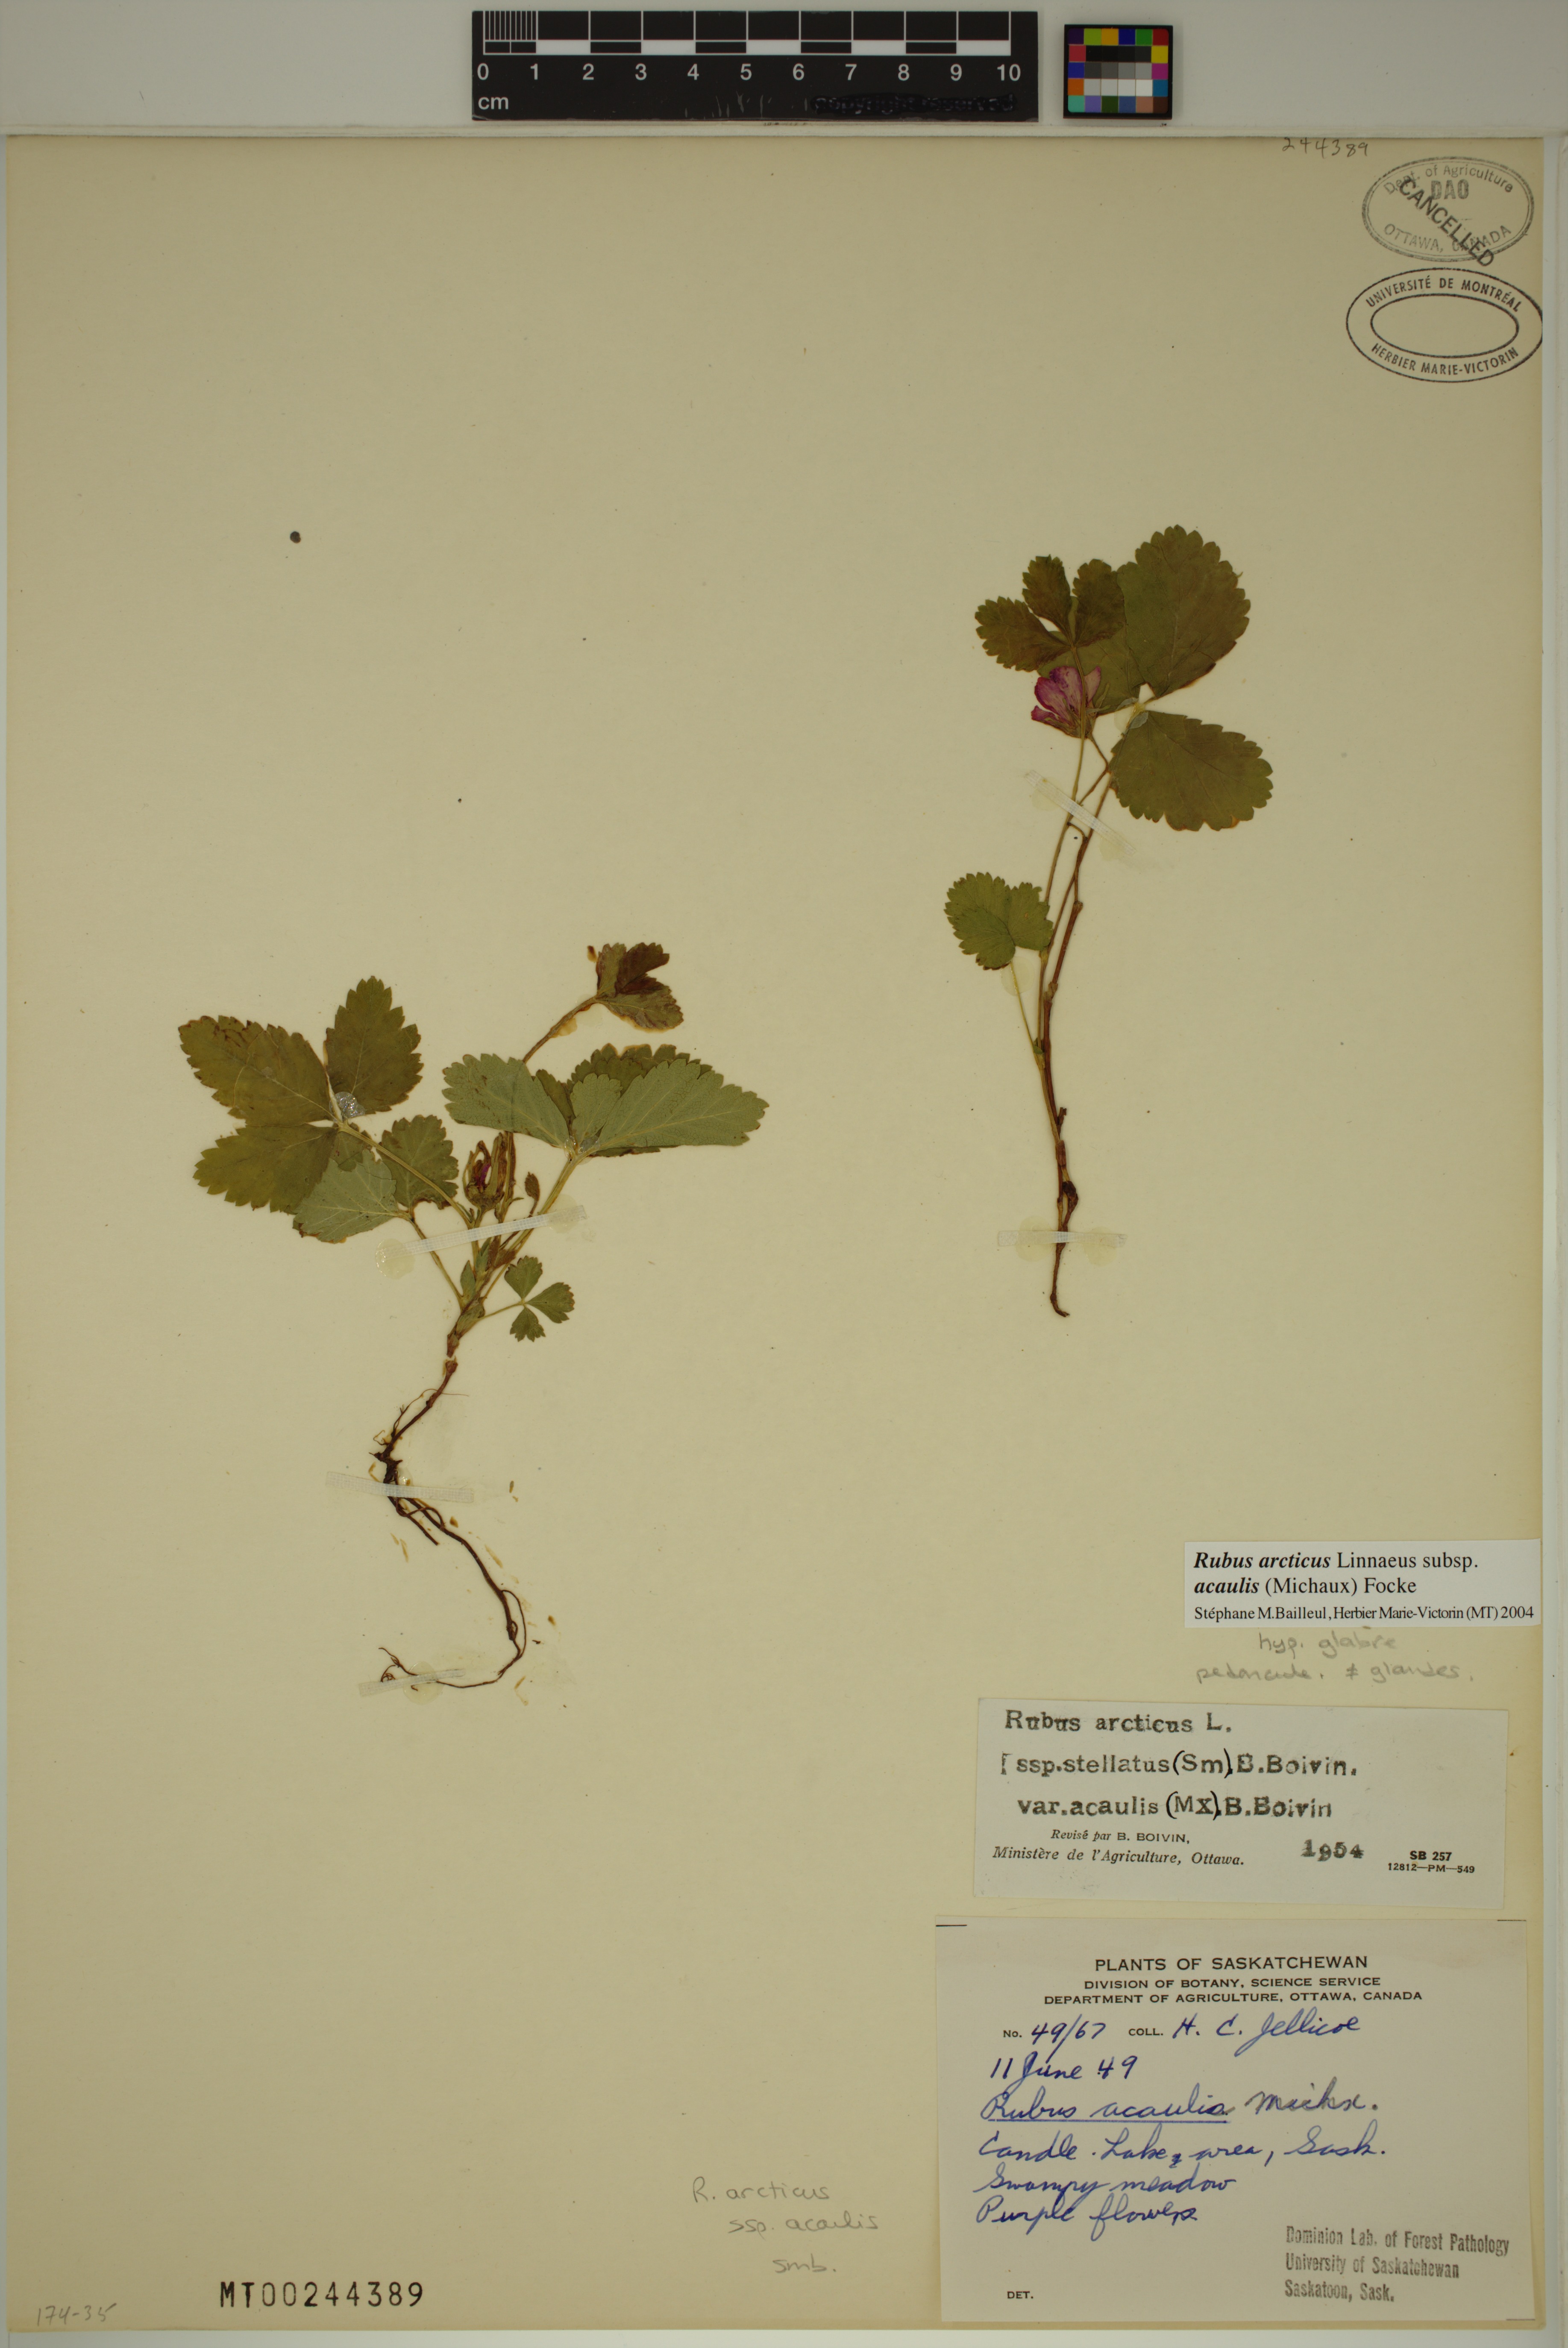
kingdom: Plantae
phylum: Tracheophyta
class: Magnoliopsida
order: Rosales
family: Rosaceae
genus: Rubus
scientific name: Rubus arcticus
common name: Arctic bramble
